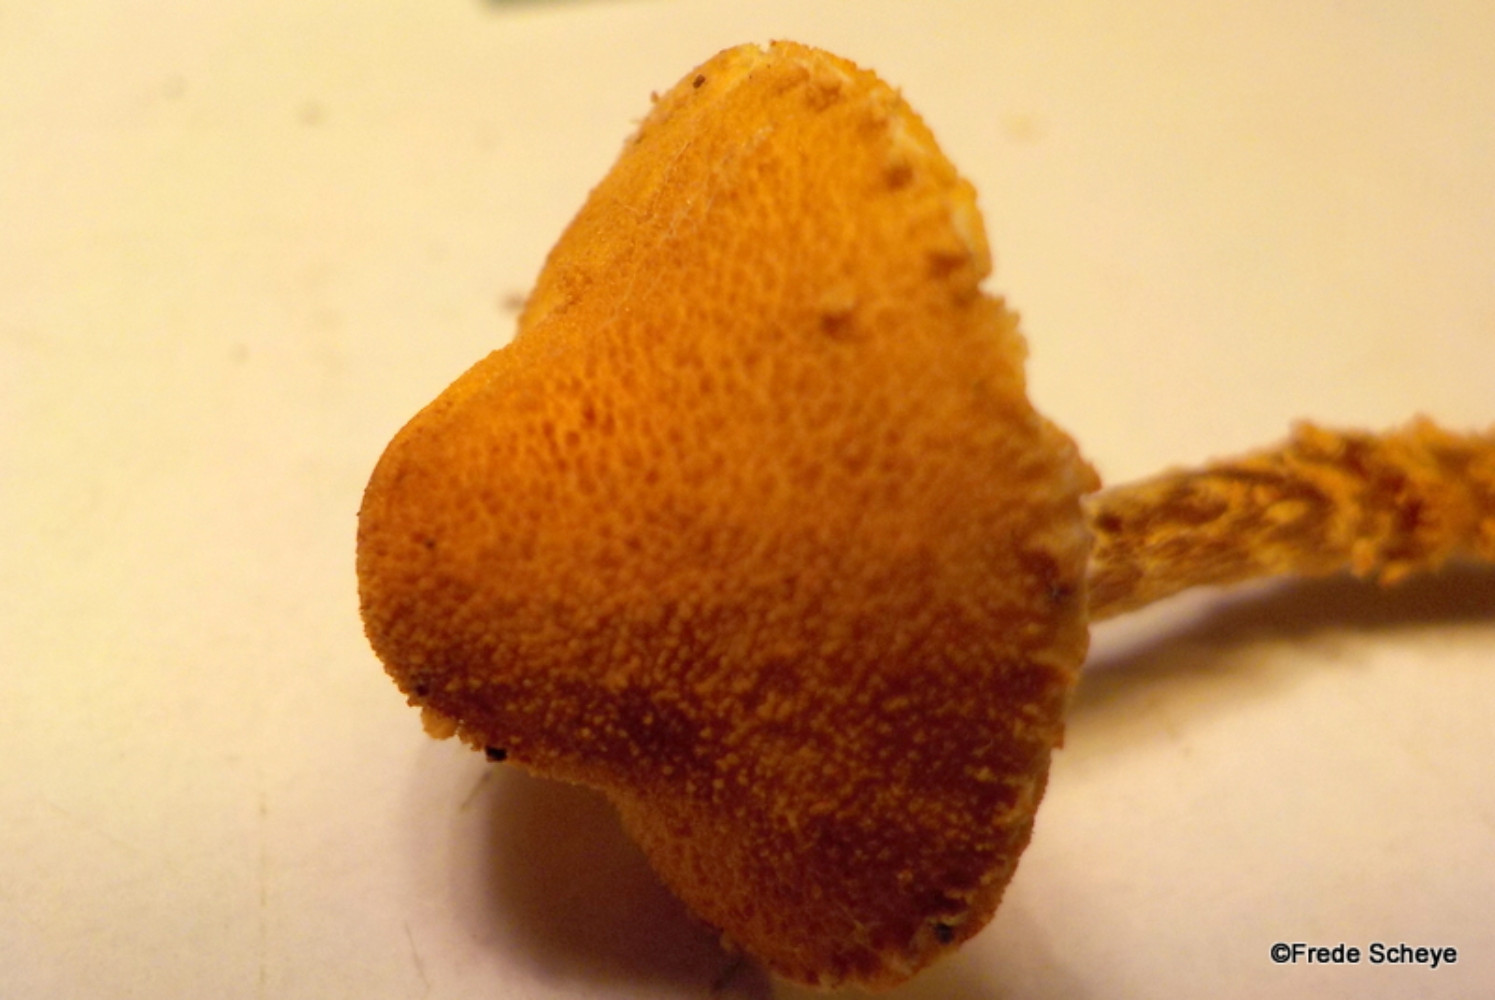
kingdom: Fungi
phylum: Basidiomycota
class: Agaricomycetes
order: Agaricales
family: Tricholomataceae
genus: Cystoderma
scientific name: Cystoderma jasonis
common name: gulkødet grynhat
